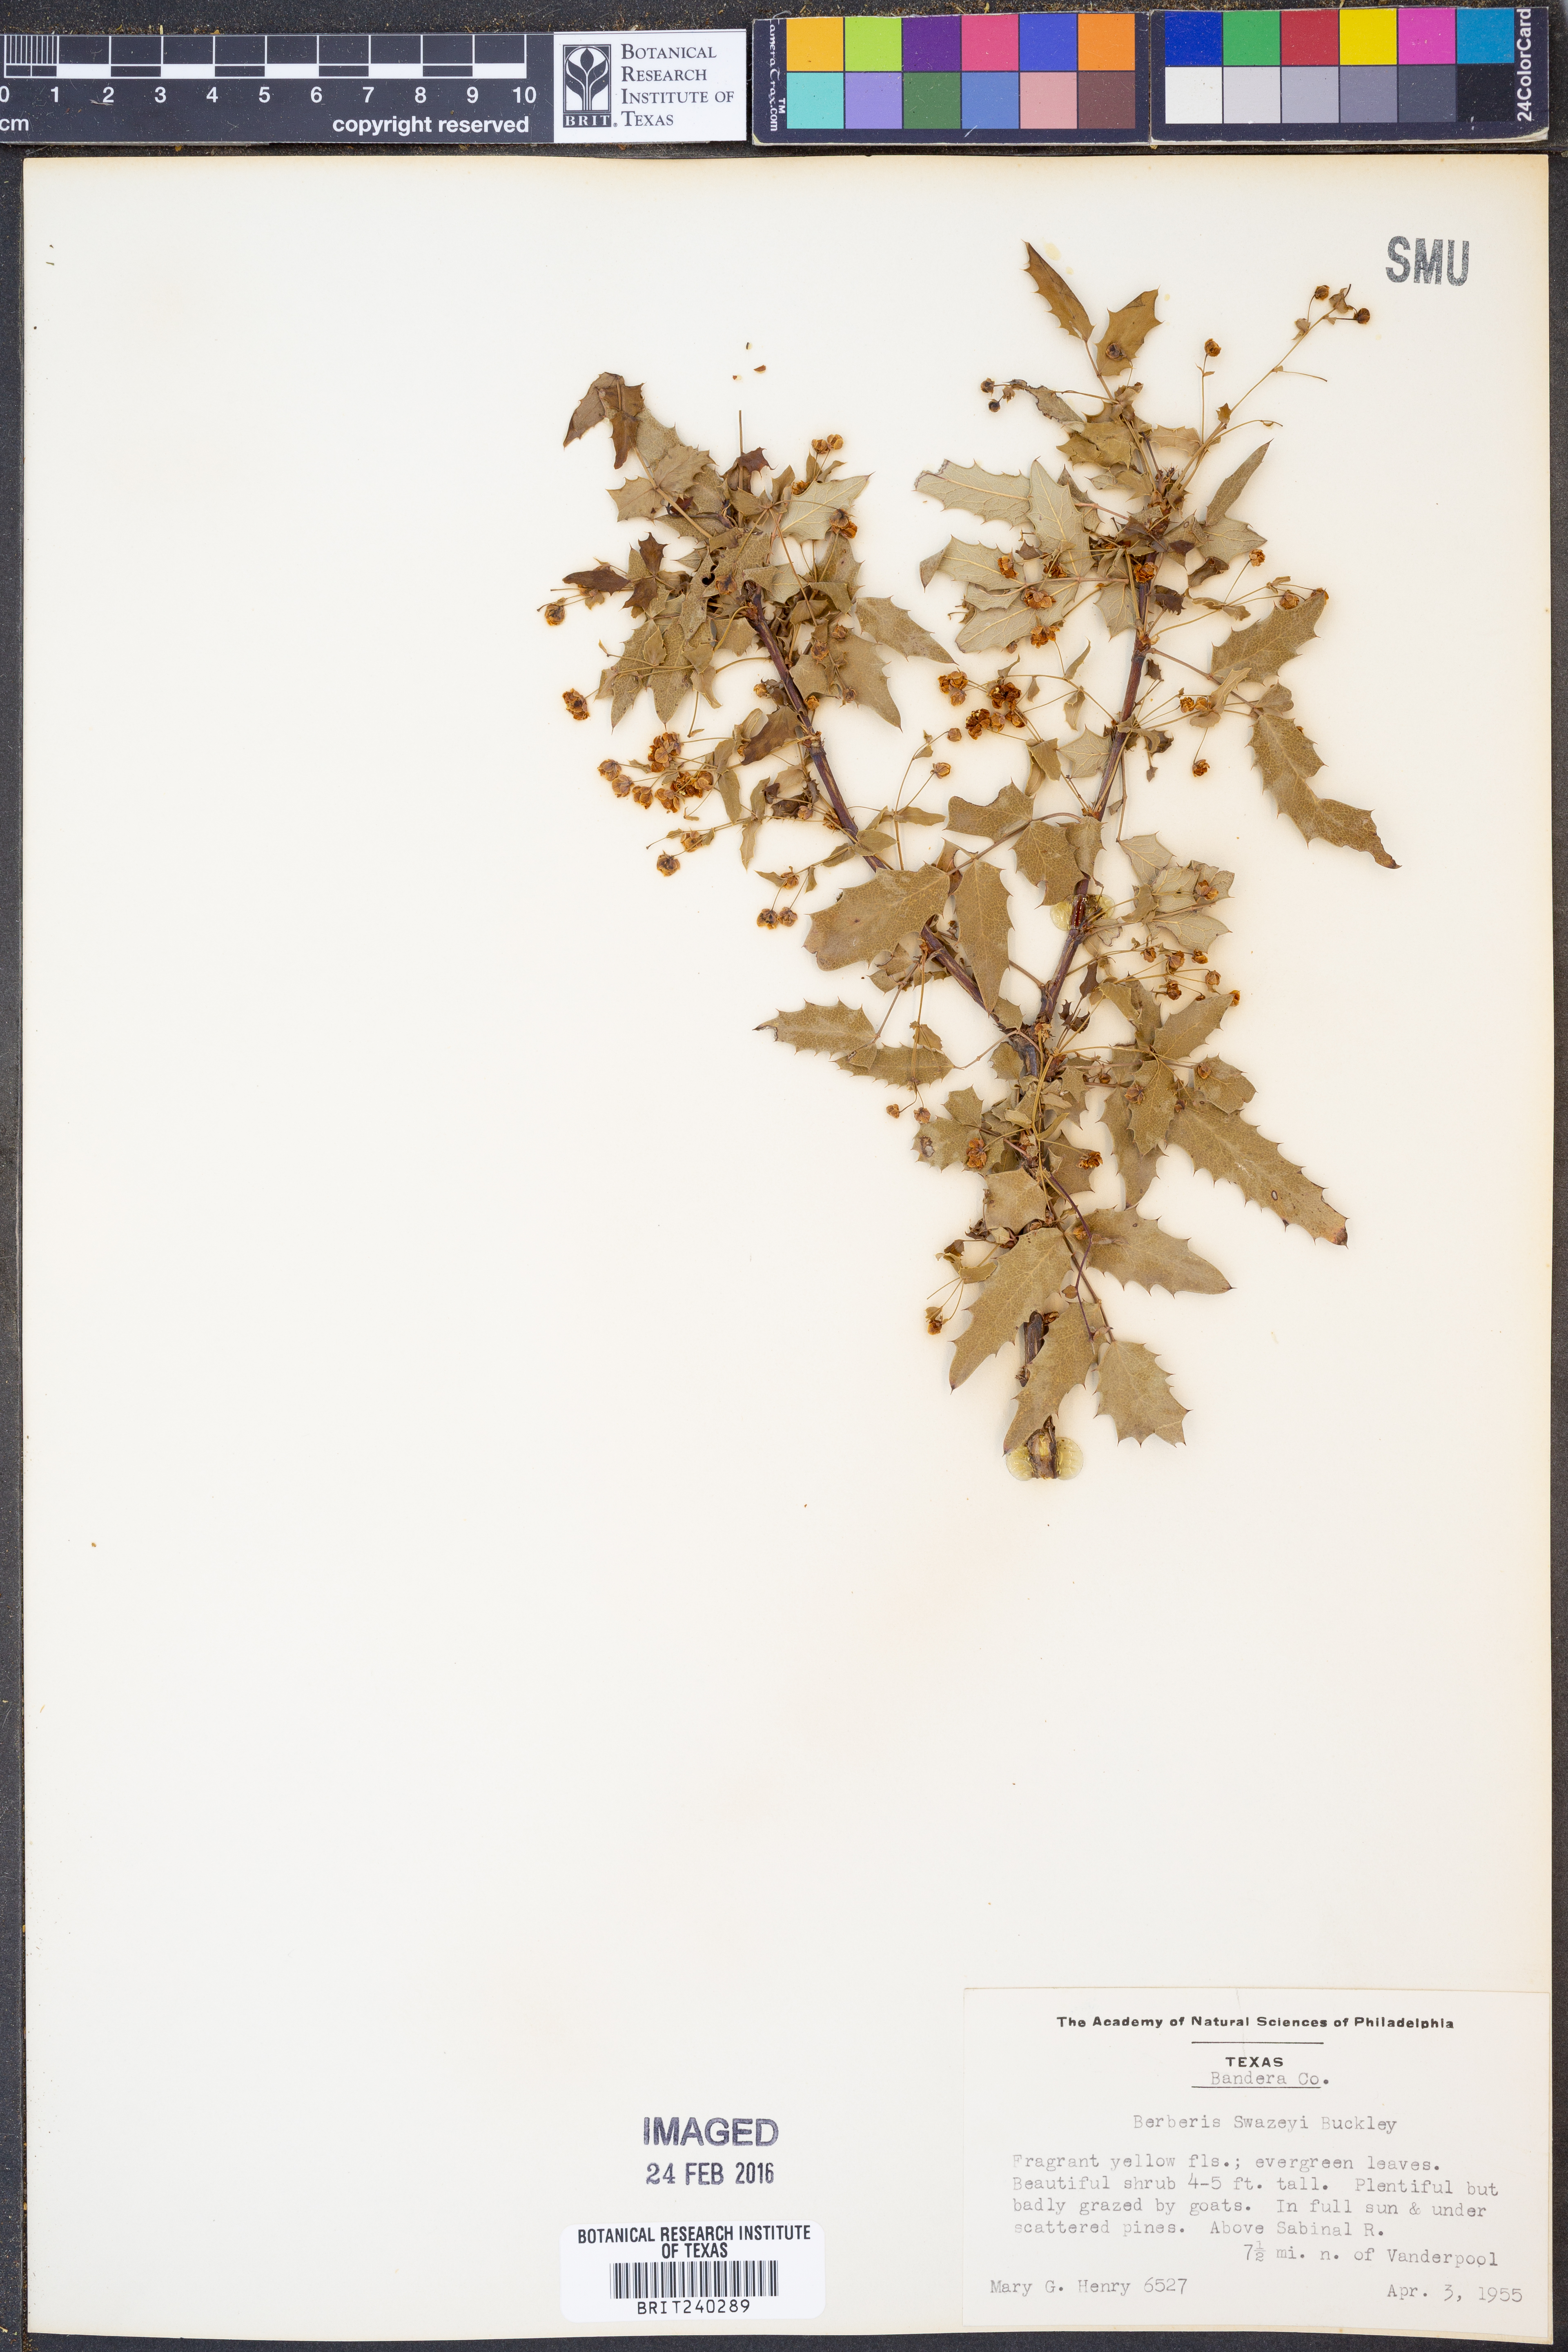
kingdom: Plantae
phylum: Tracheophyta
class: Magnoliopsida
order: Ranunculales
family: Berberidaceae
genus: Berberis
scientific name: Berberis swaseyi
